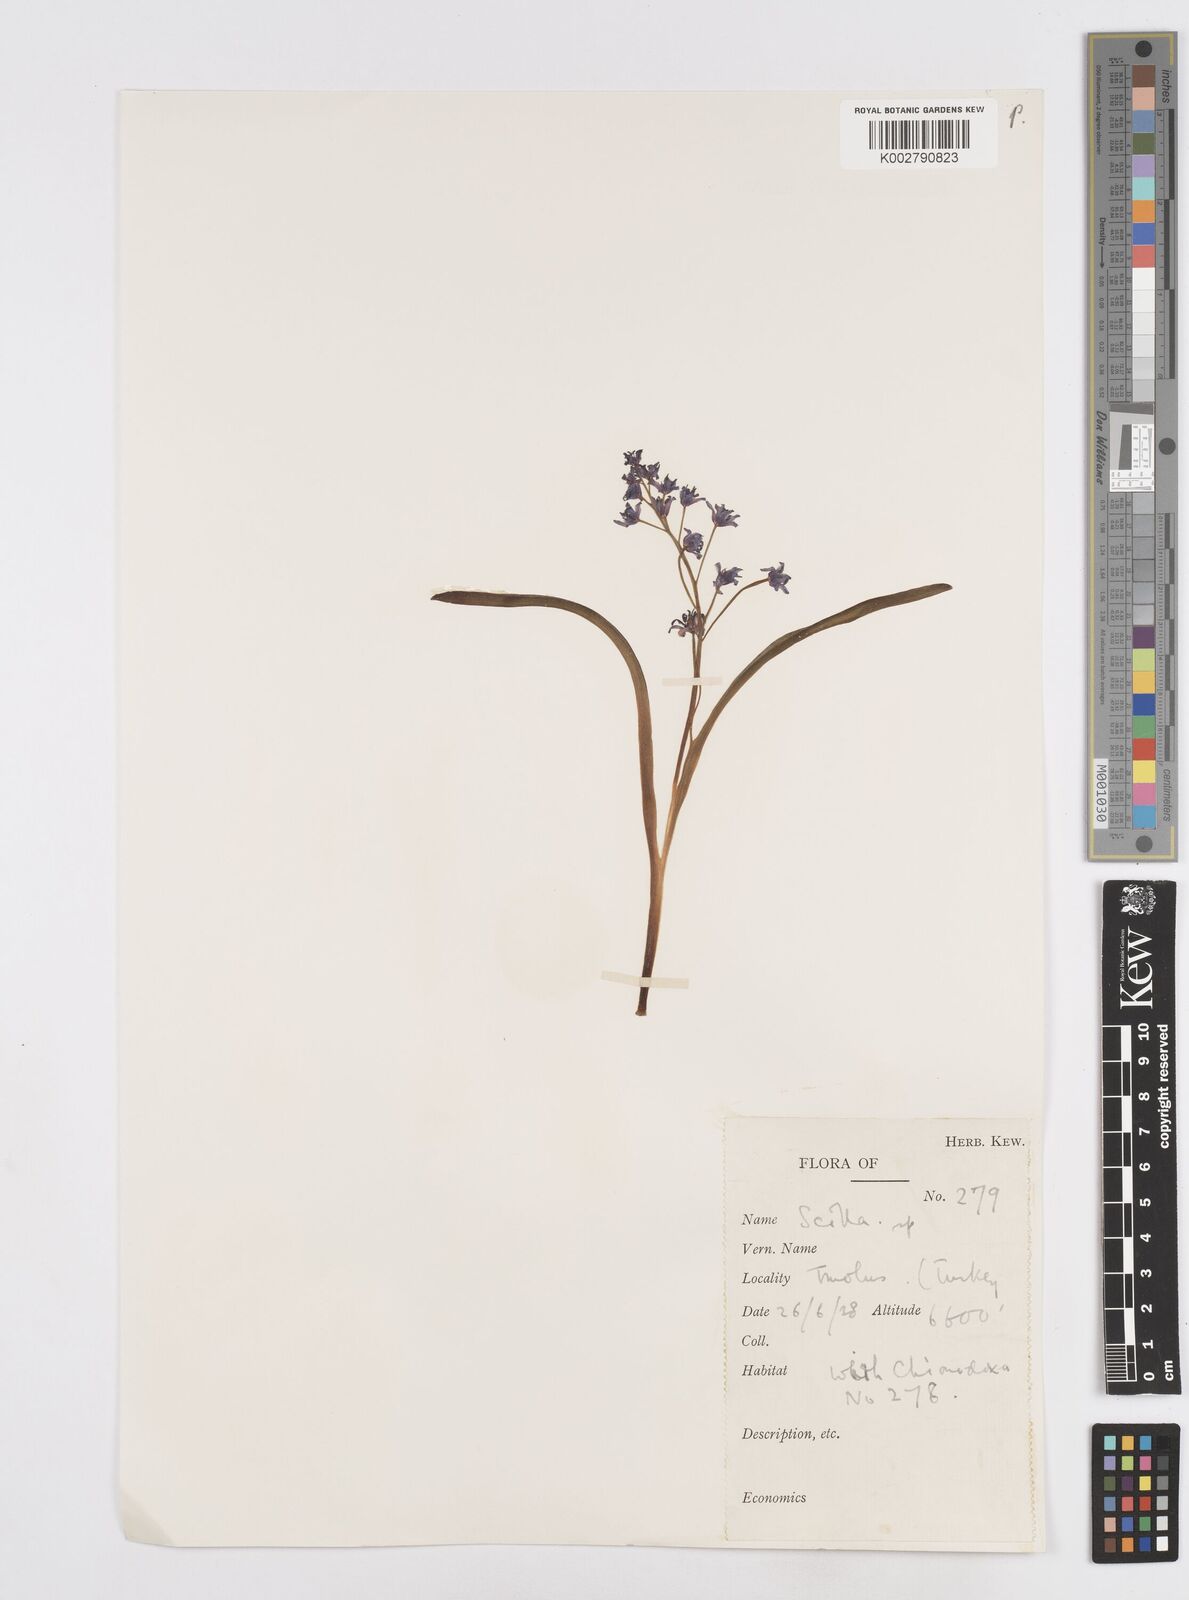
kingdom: Plantae
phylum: Tracheophyta
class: Liliopsida
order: Asparagales
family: Asparagaceae
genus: Scilla
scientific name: Scilla bifolia
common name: Alpine squill
